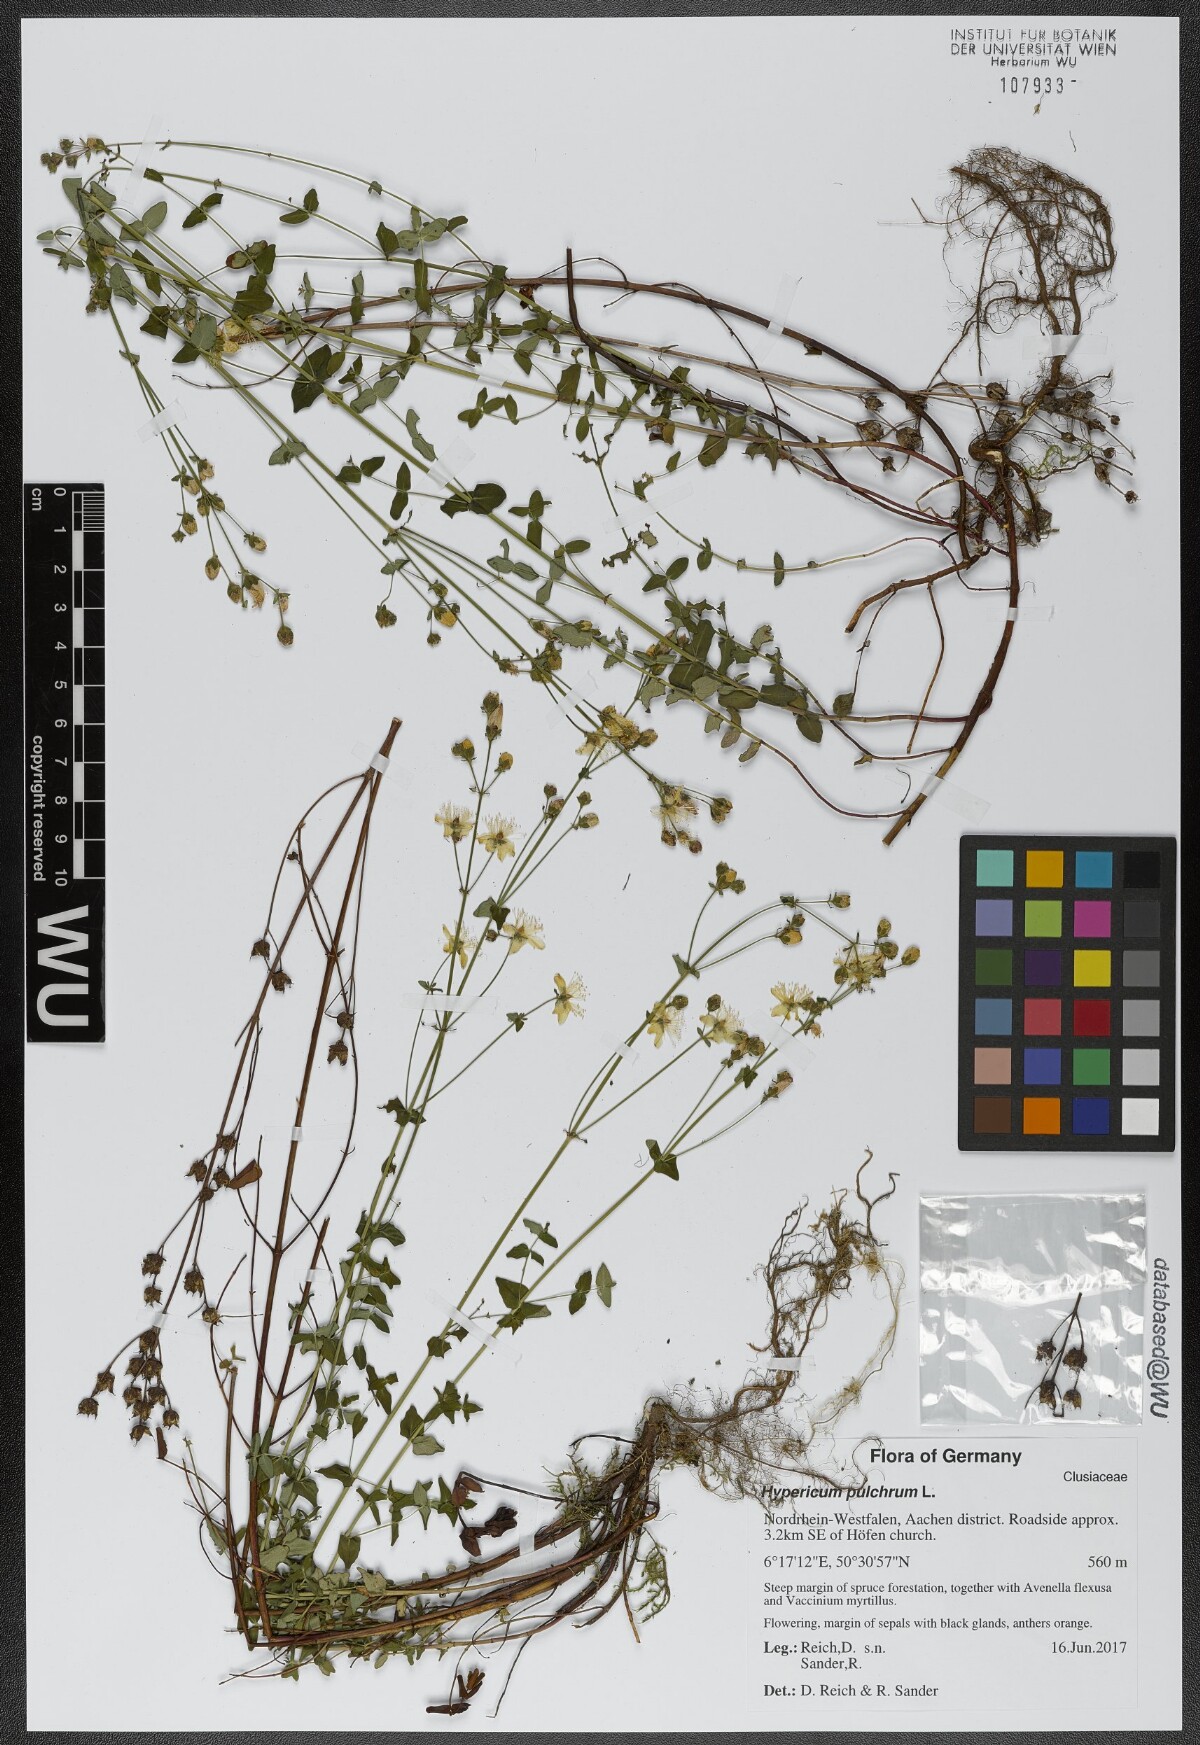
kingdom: Plantae
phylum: Tracheophyta
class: Magnoliopsida
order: Malpighiales
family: Hypericaceae
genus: Hypericum
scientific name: Hypericum pulchrum
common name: Slender st. john's-wort
